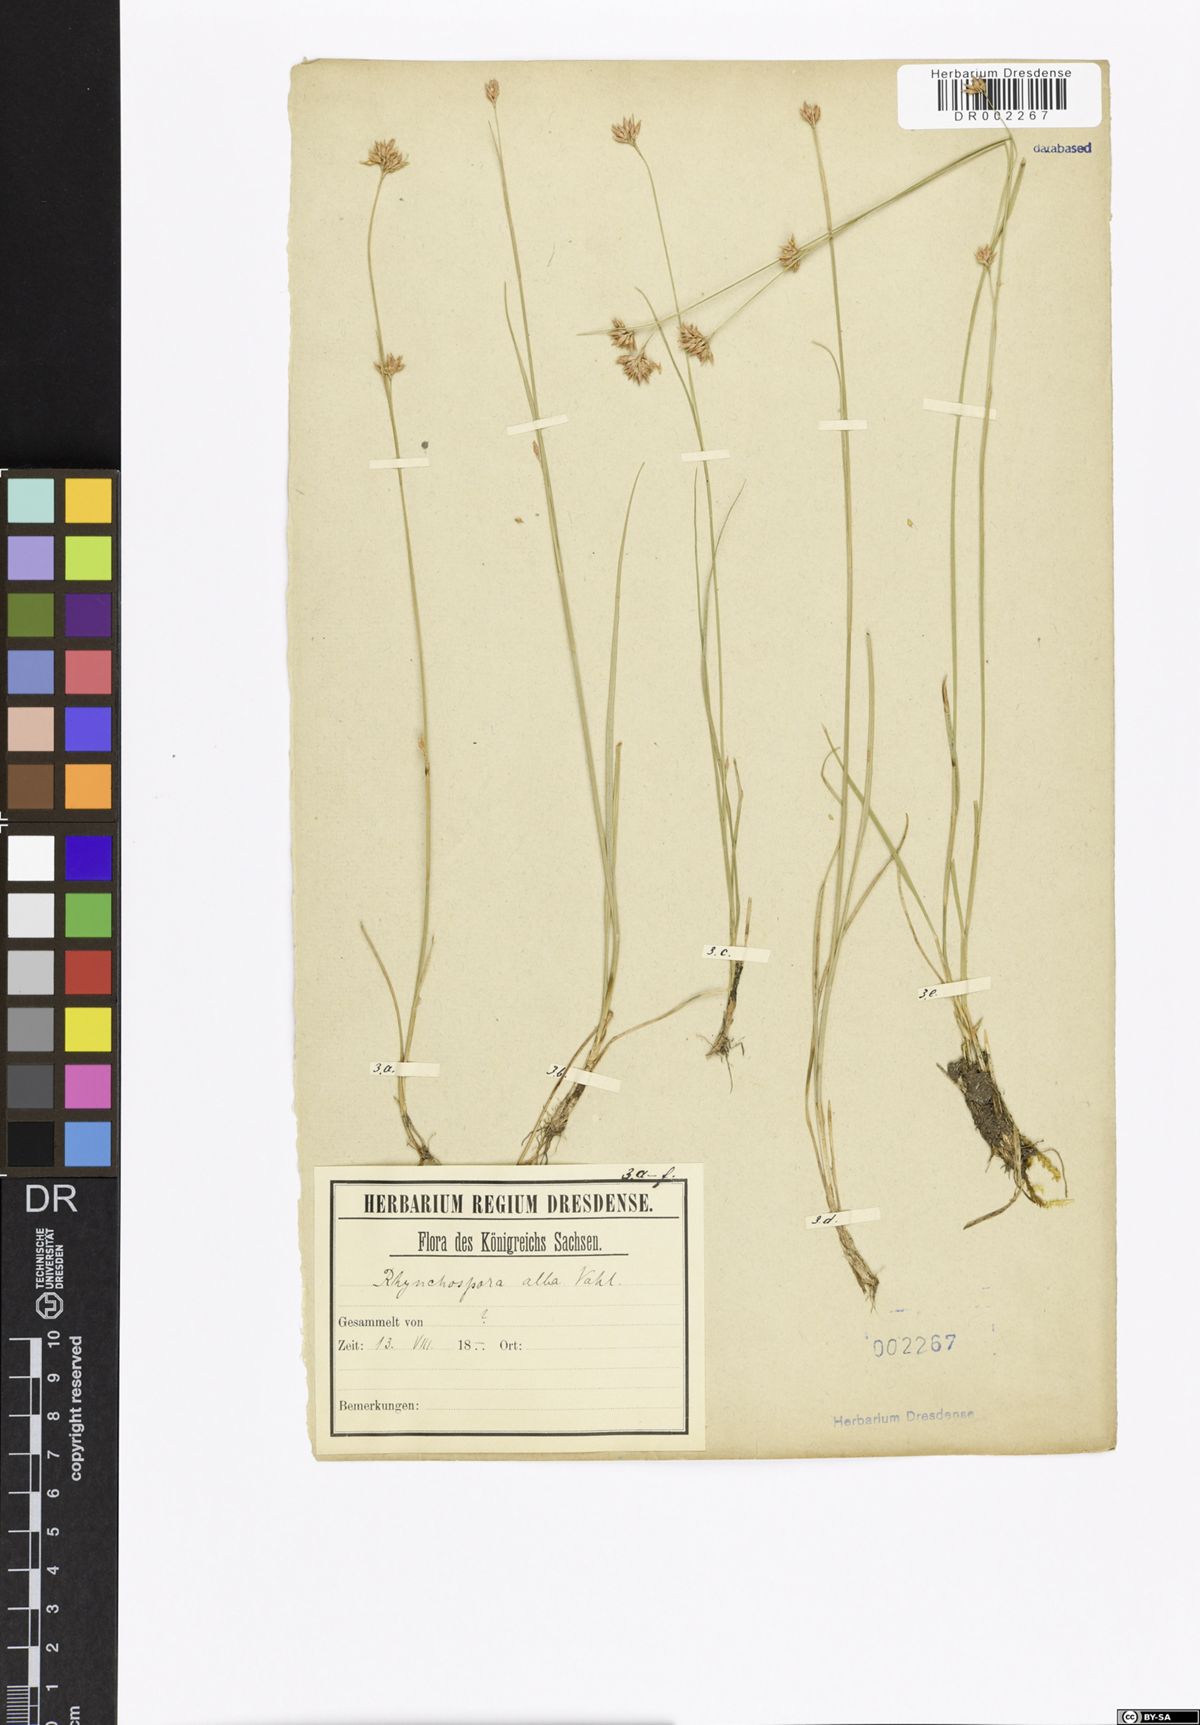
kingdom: Plantae
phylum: Tracheophyta
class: Liliopsida
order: Poales
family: Cyperaceae
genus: Rhynchospora
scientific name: Rhynchospora alba
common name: White beak-sedge
